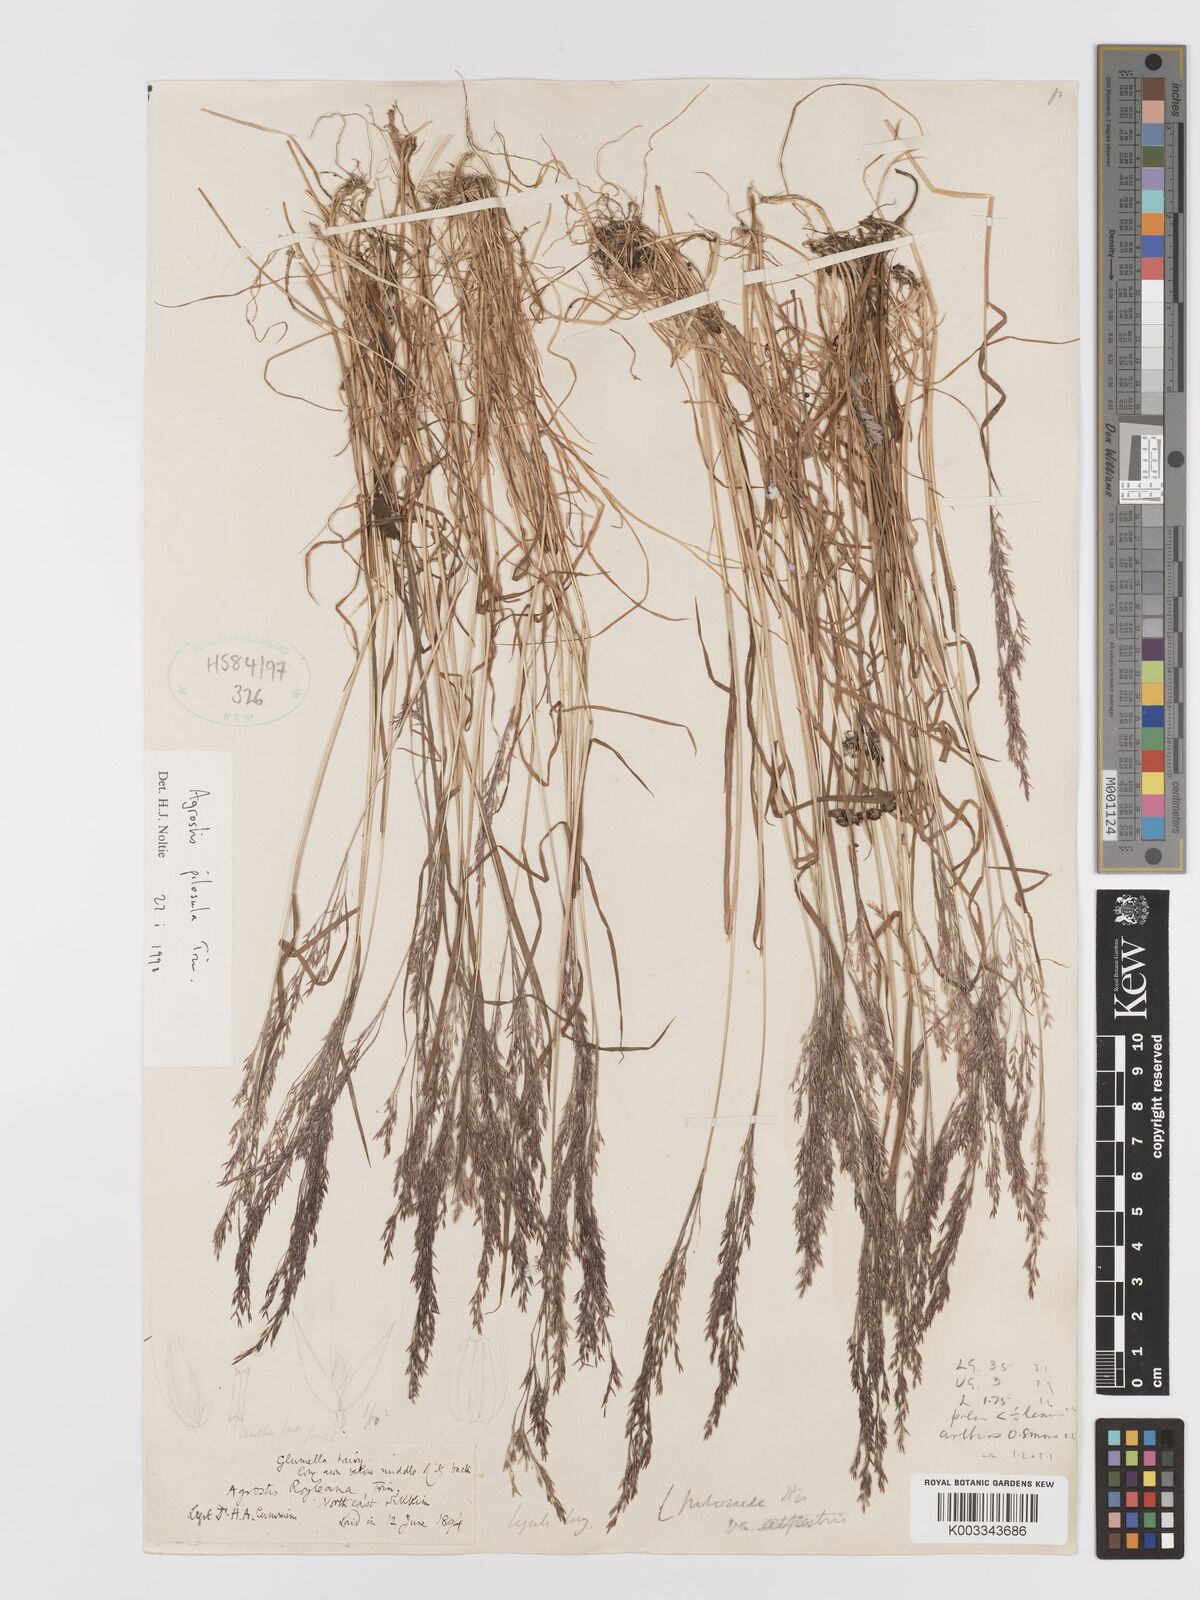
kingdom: Plantae
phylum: Tracheophyta
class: Liliopsida
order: Poales
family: Poaceae
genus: Agrostis
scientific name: Agrostis pilosula
